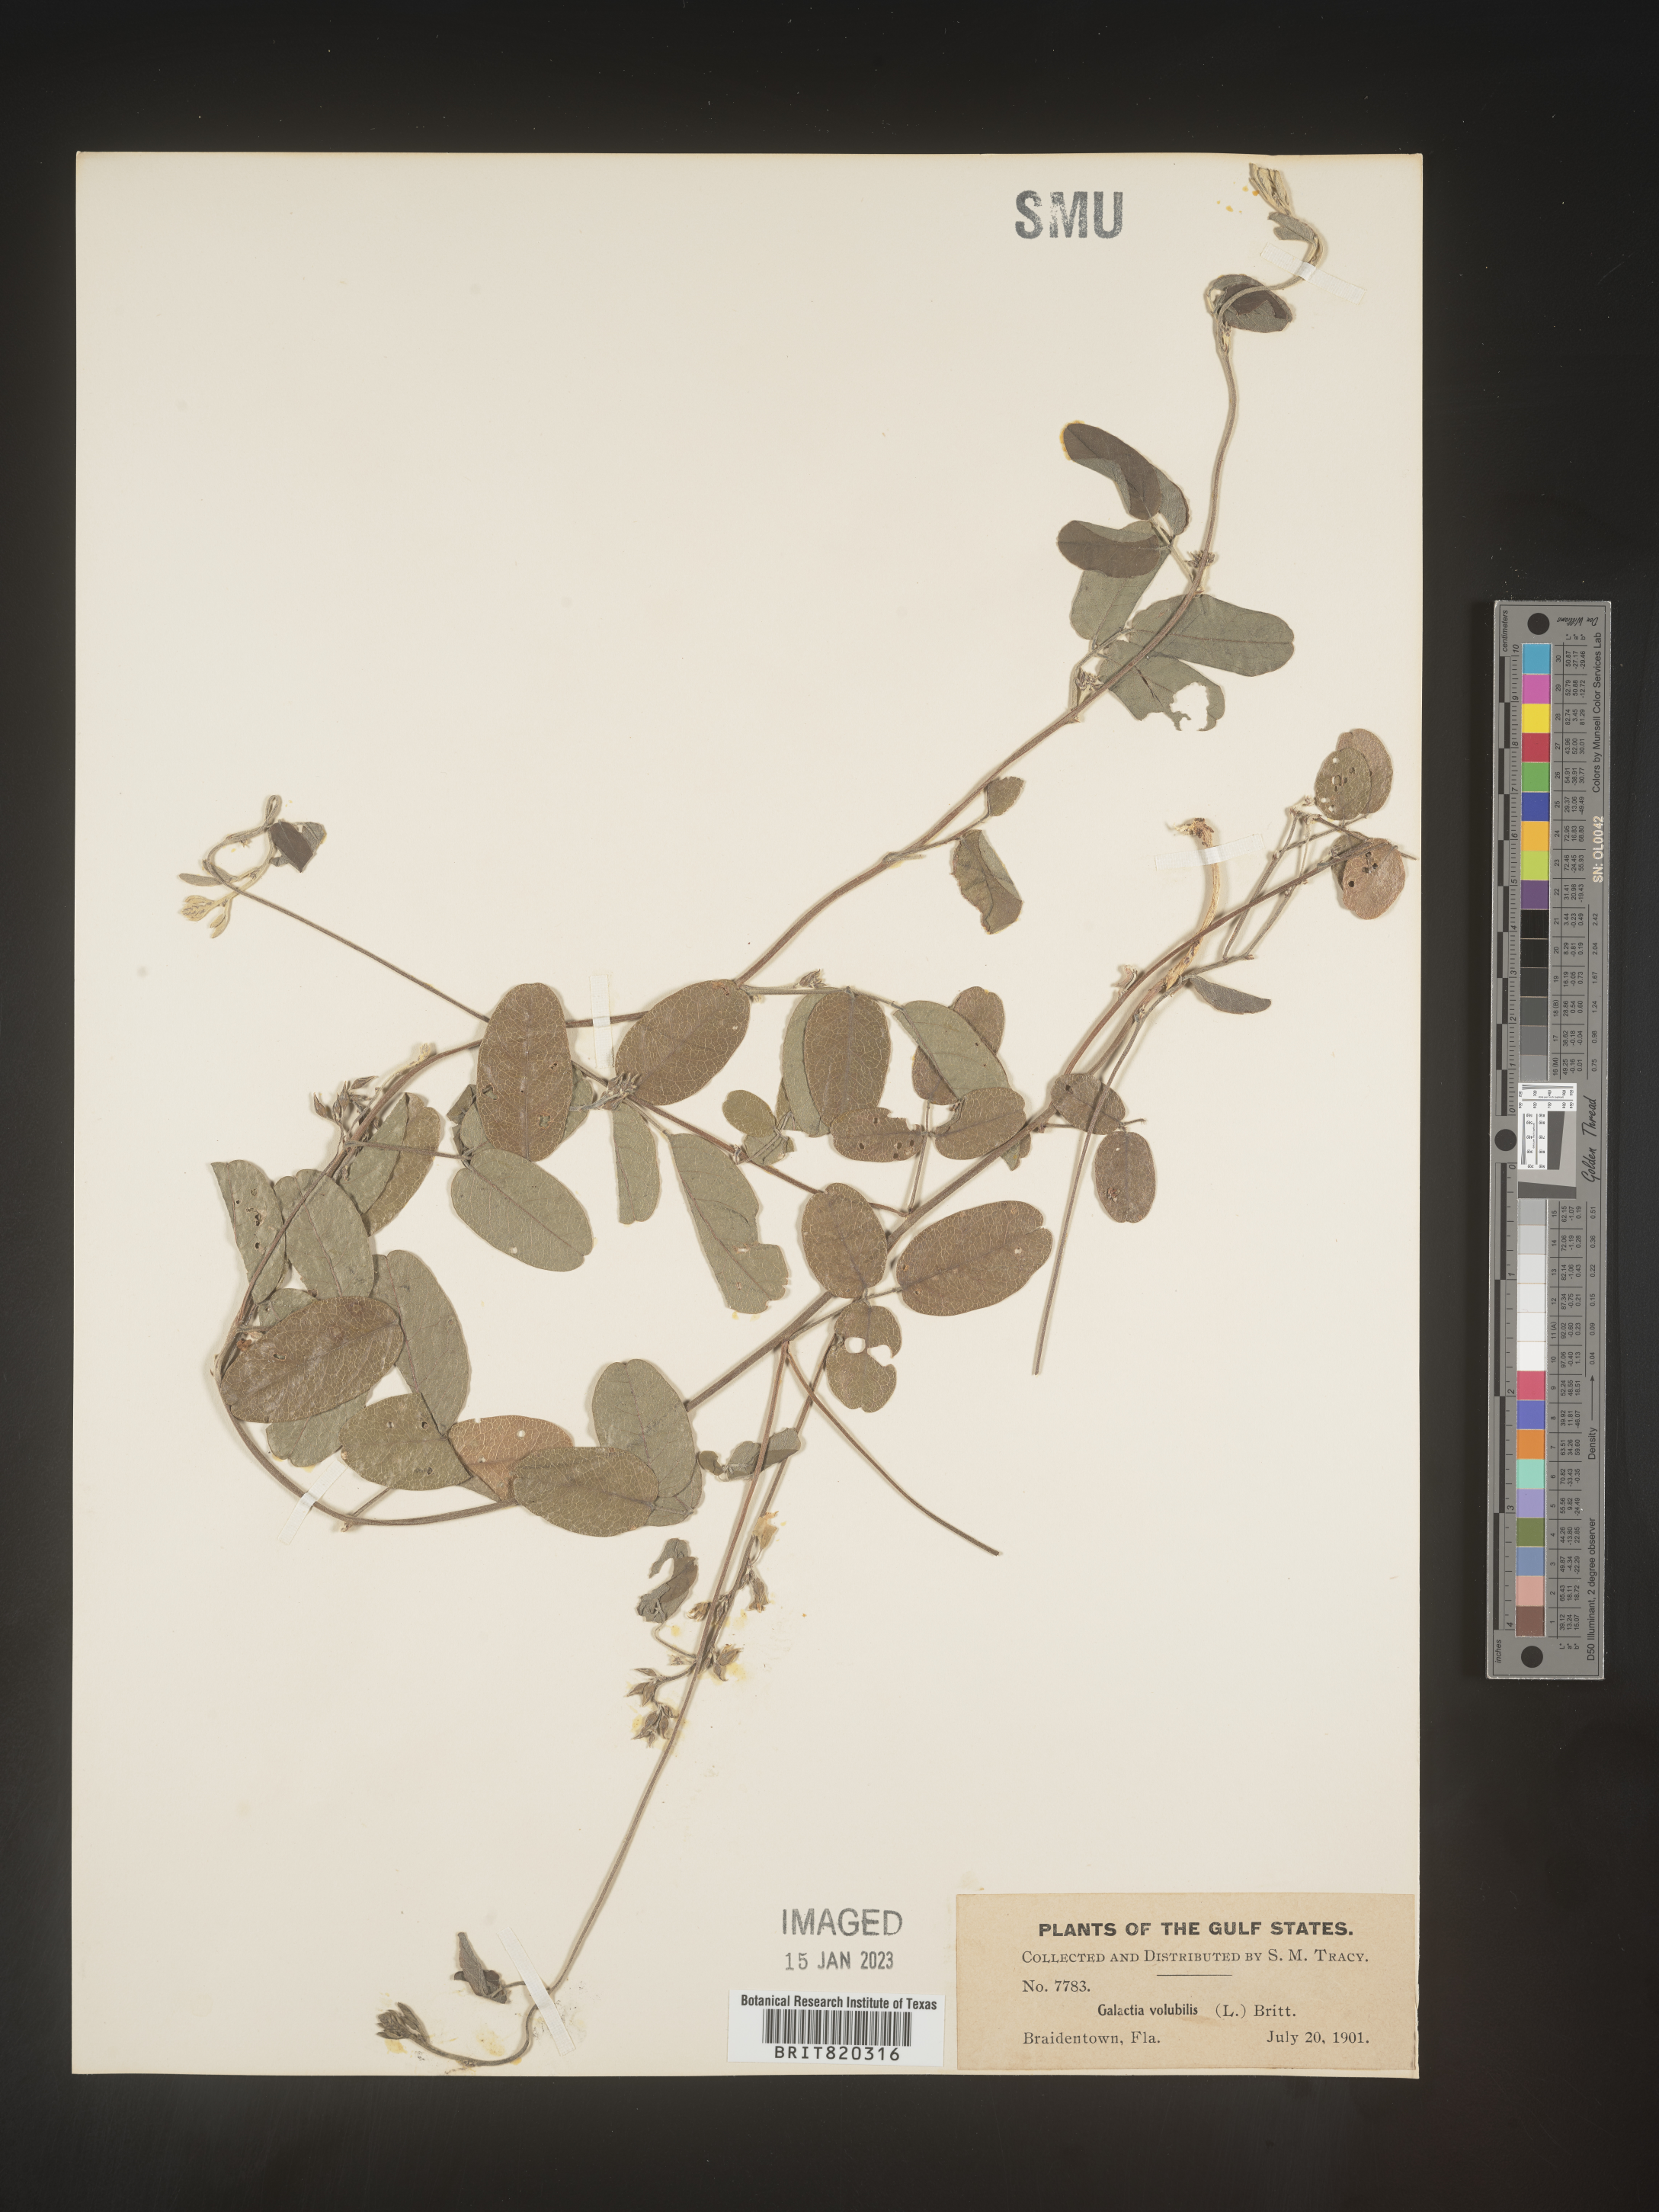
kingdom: Plantae
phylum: Tracheophyta
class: Magnoliopsida
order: Fabales
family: Fabaceae
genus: Galactia
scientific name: Galactia regularis
